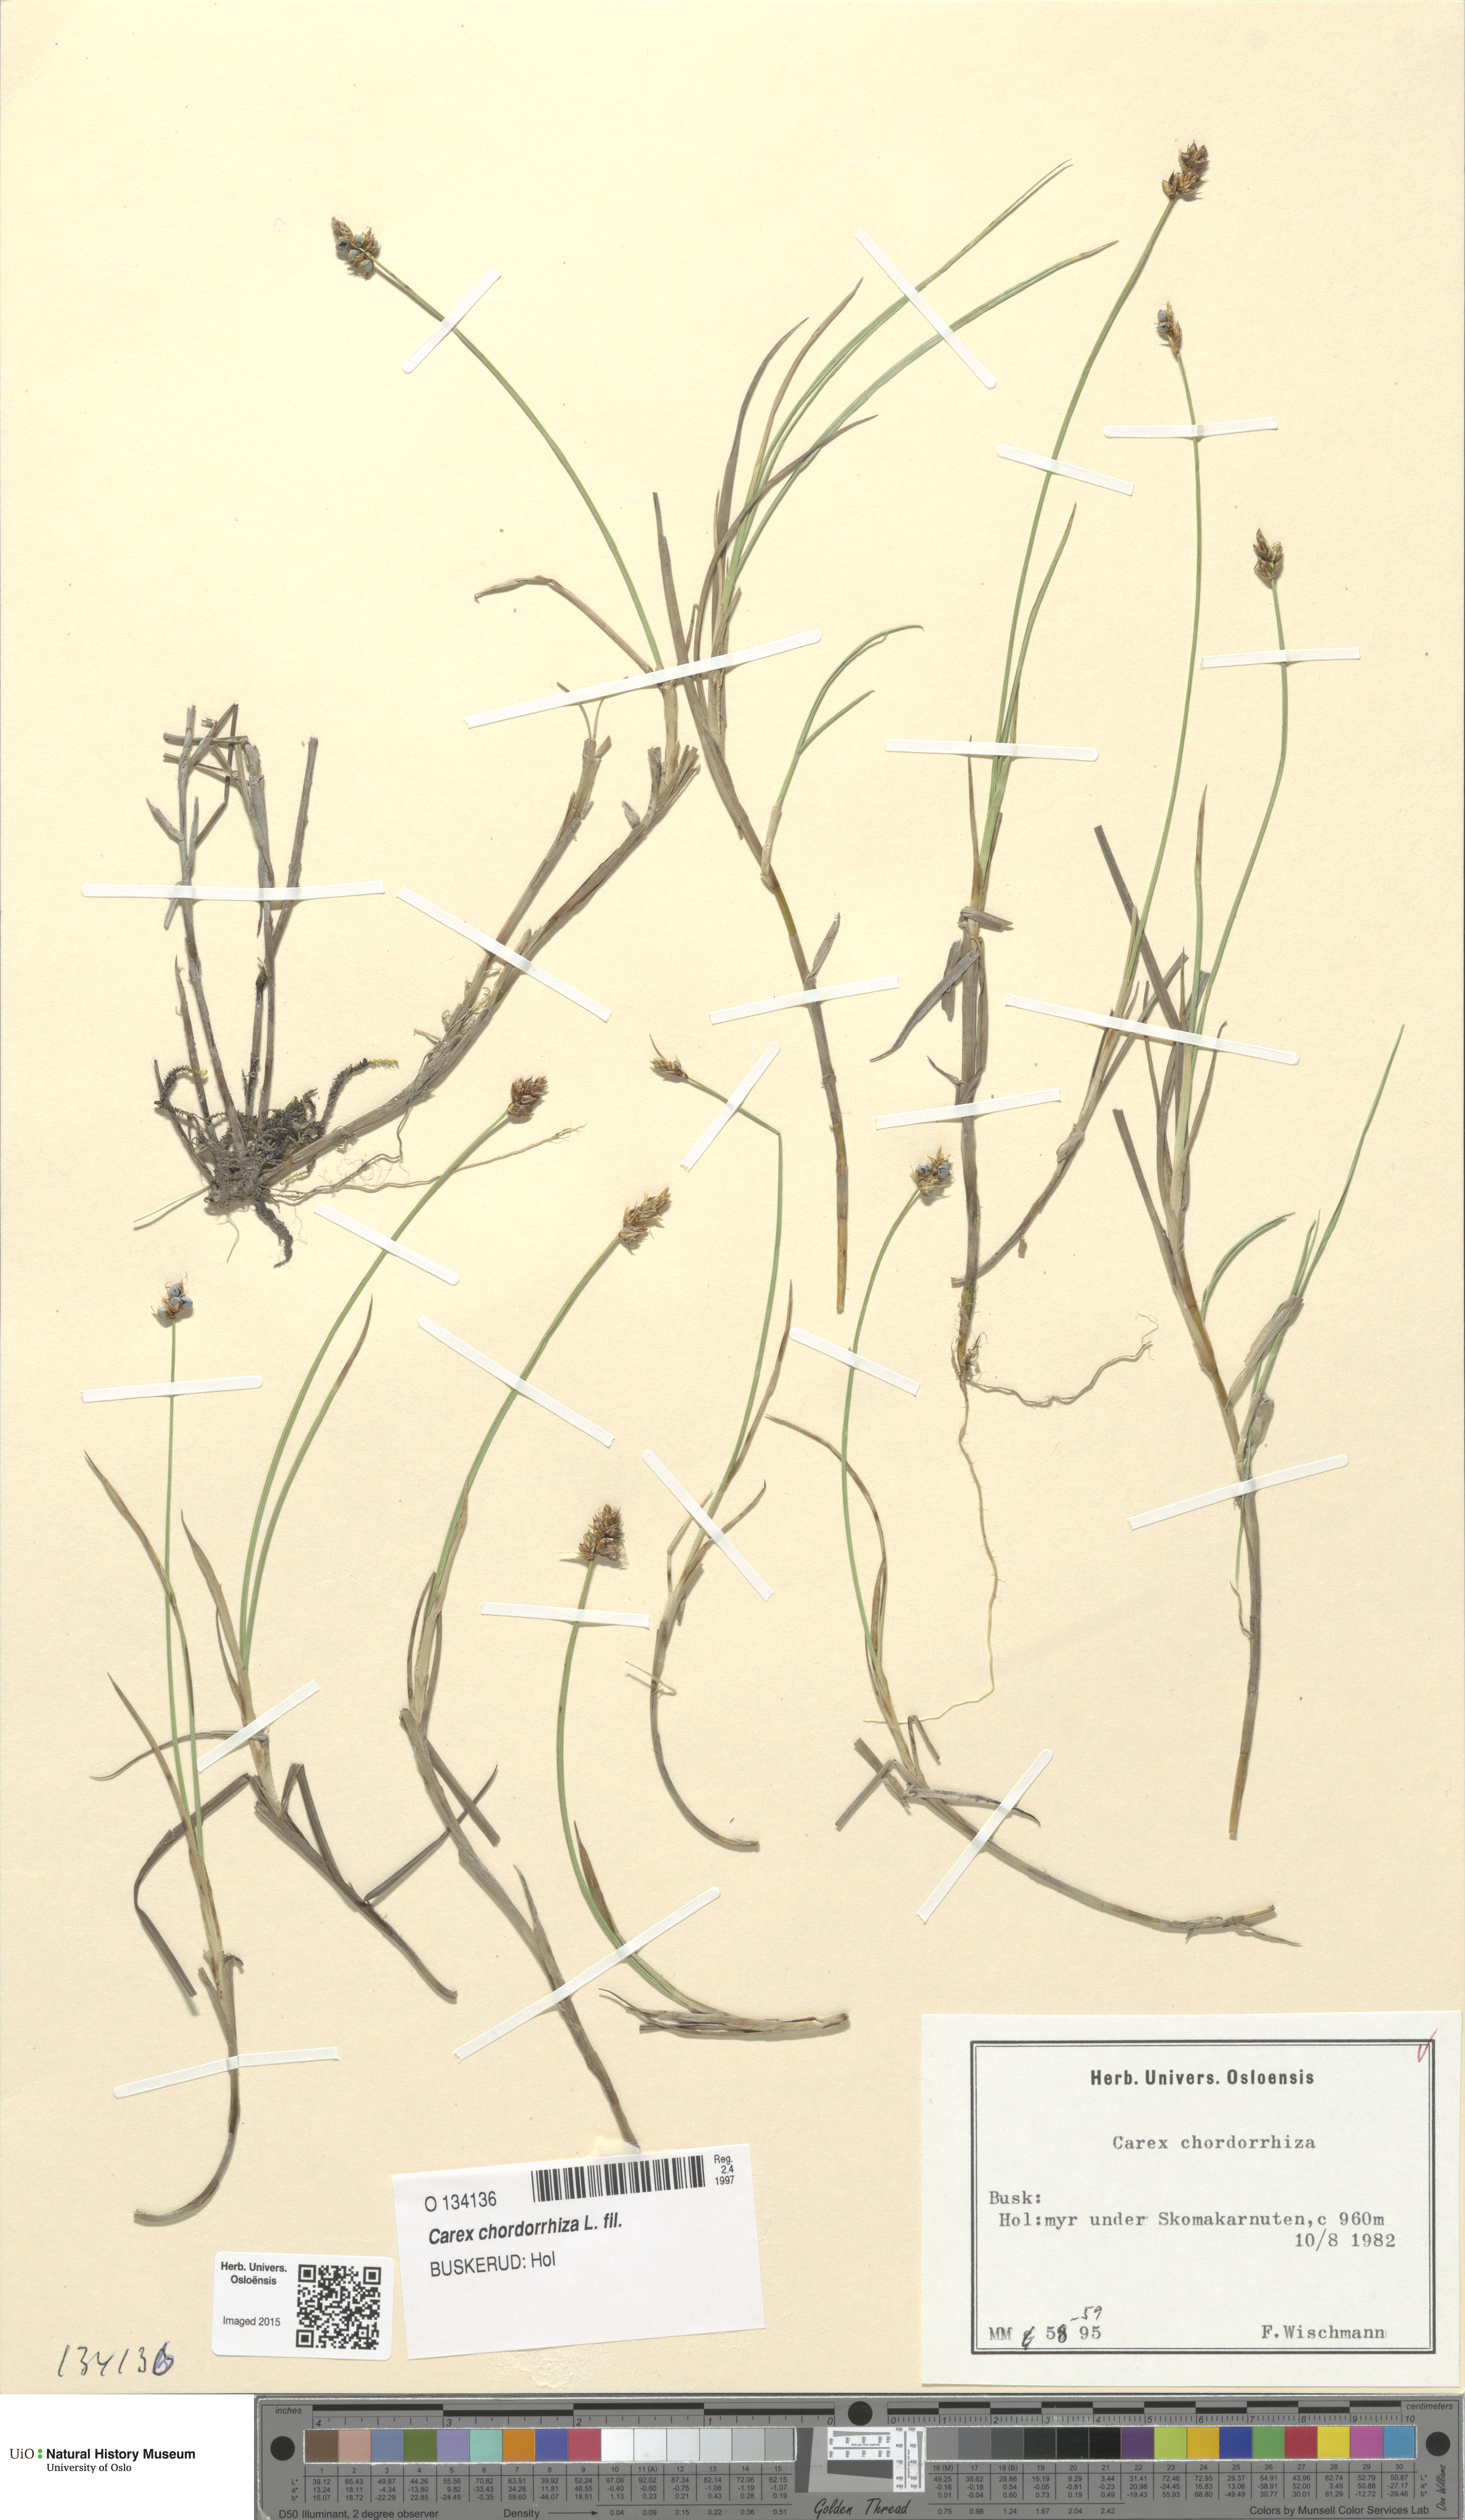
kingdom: Plantae
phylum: Tracheophyta
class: Liliopsida
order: Poales
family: Cyperaceae
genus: Carex
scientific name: Carex chordorrhiza
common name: String sedge
